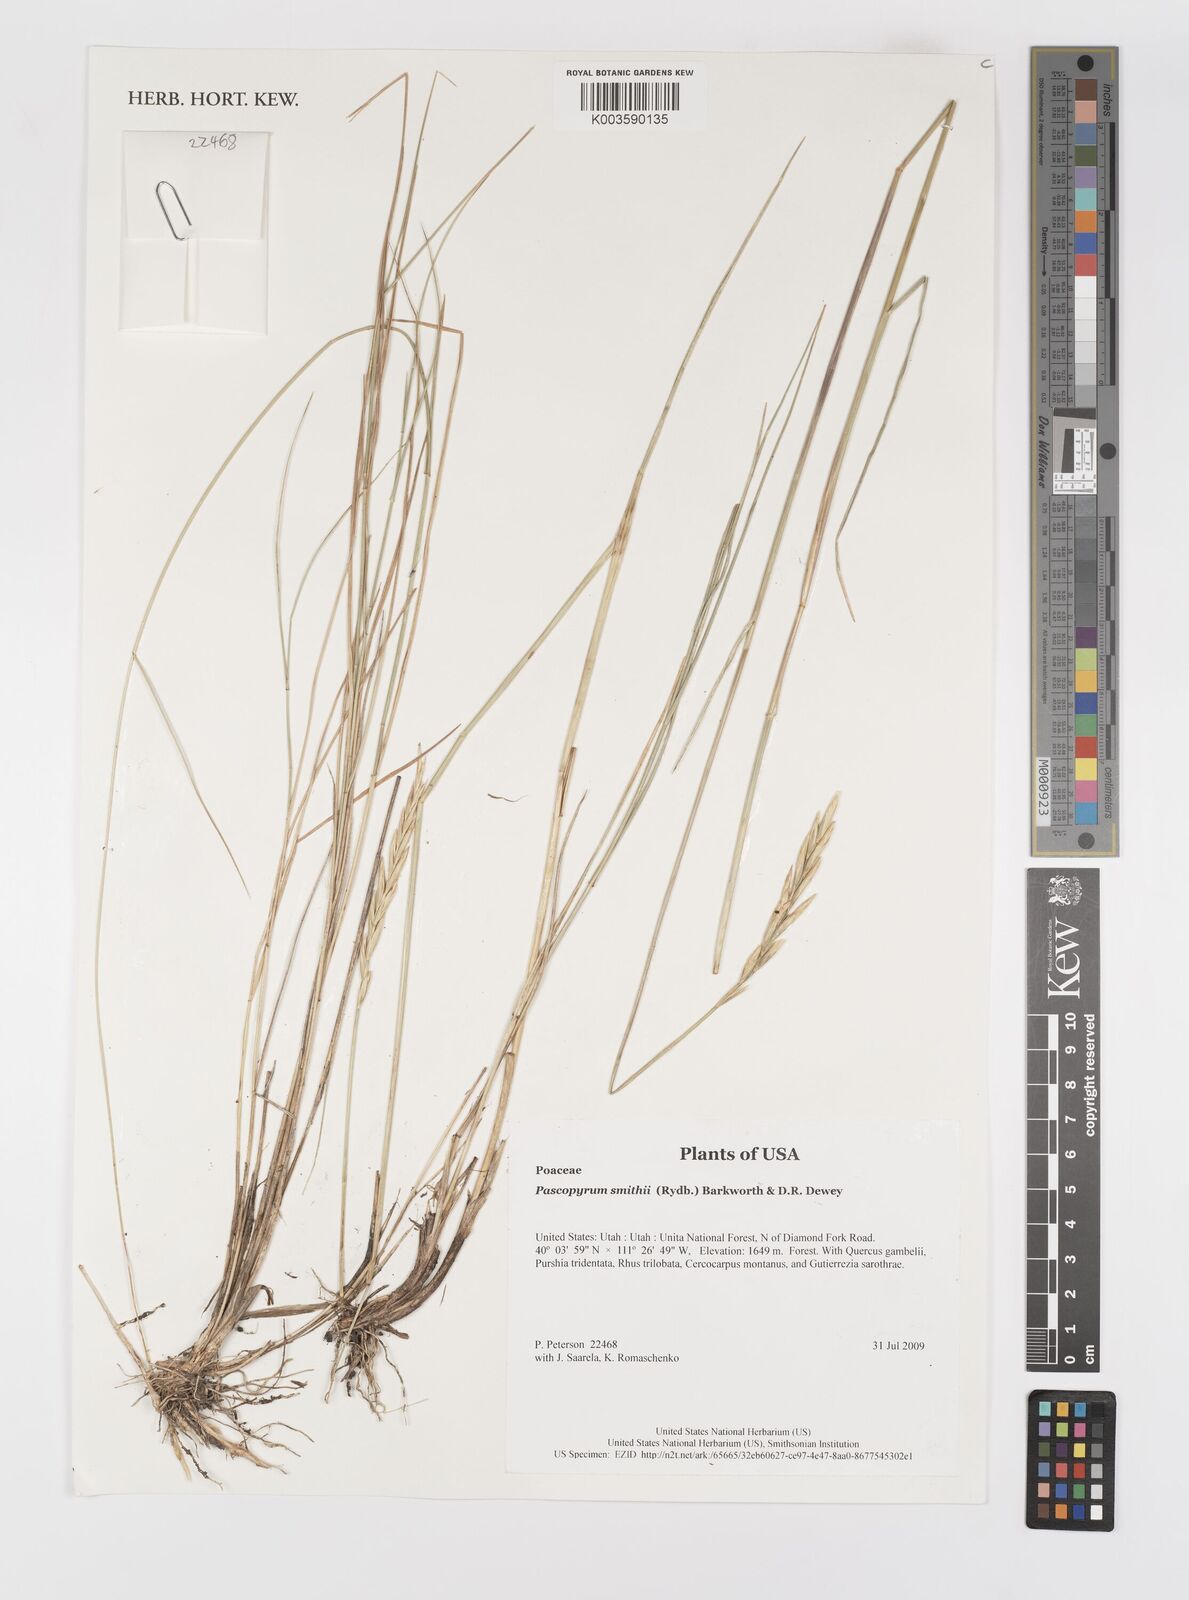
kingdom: Plantae
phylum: Tracheophyta
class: Liliopsida
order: Poales
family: Poaceae
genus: Elymus
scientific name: Elymus smithii
